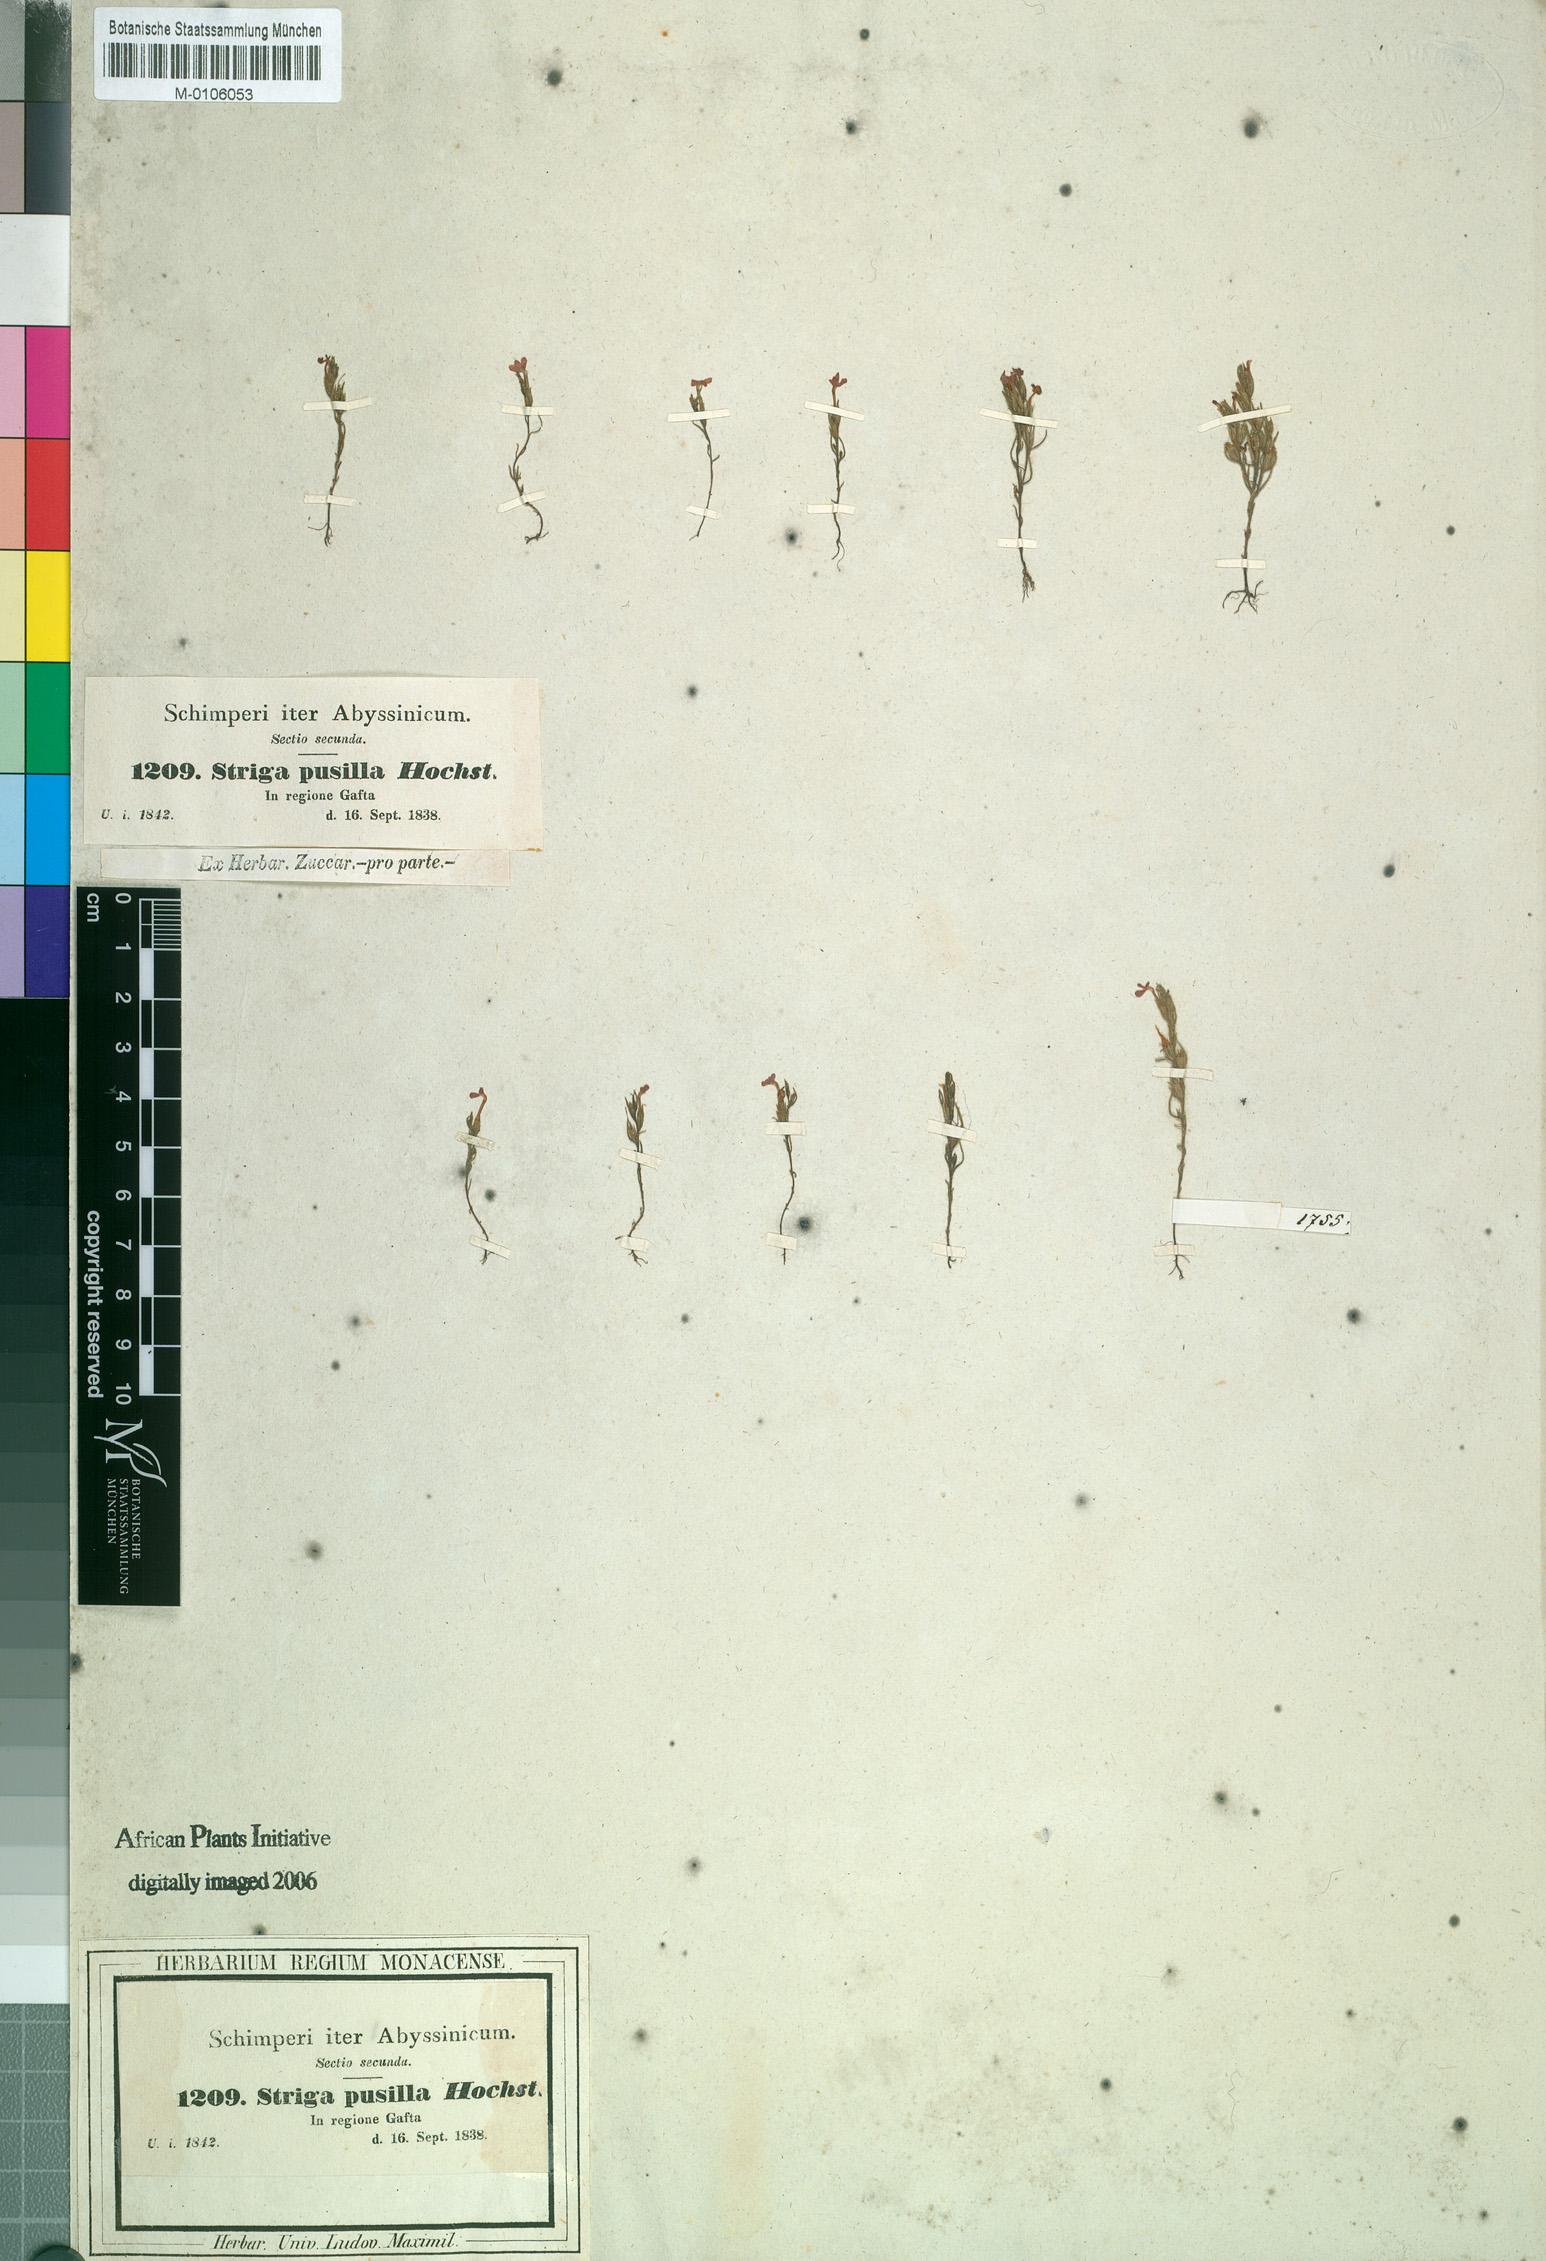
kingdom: Plantae
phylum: Tracheophyta
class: Magnoliopsida
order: Lamiales
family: Orobanchaceae
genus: Striga
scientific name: Striga lutea
